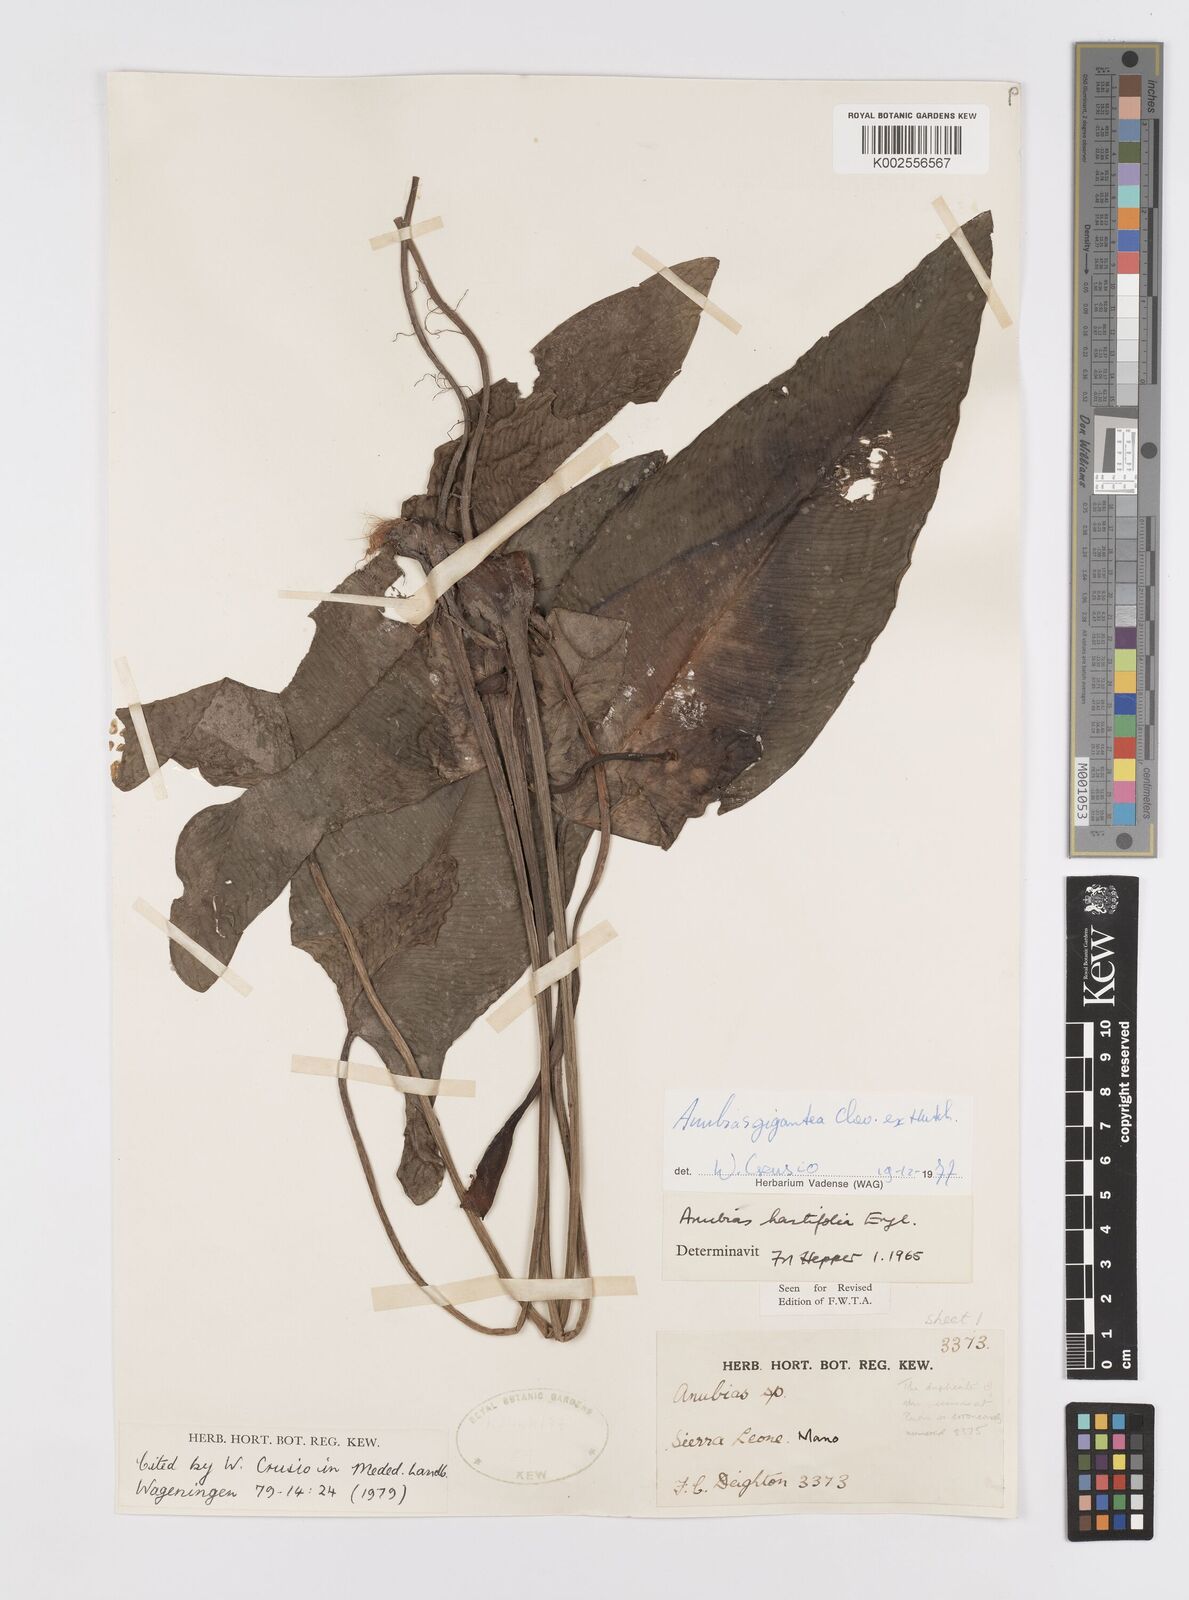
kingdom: Plantae
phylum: Tracheophyta
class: Liliopsida
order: Alismatales
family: Araceae
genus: Anubias
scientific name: Anubias gigantea
